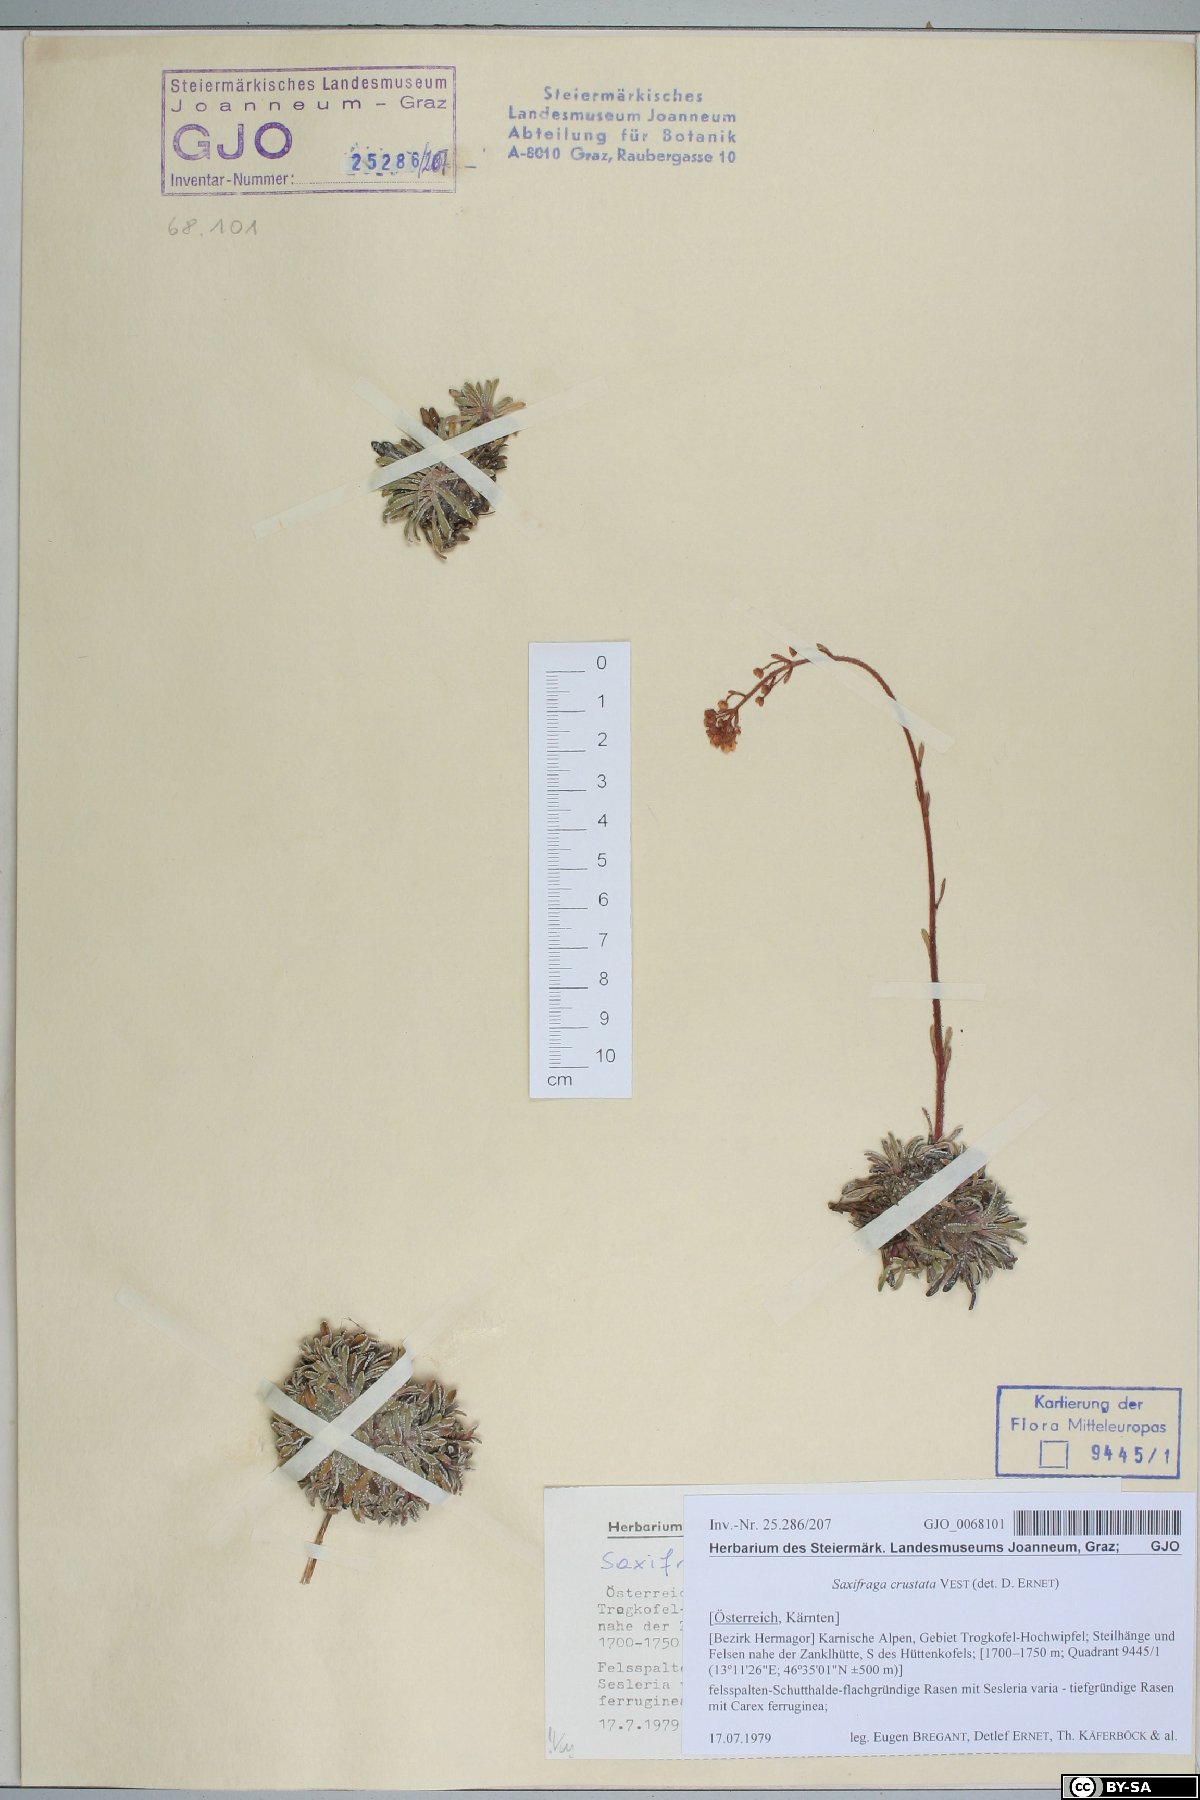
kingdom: Plantae
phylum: Tracheophyta
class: Magnoliopsida
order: Saxifragales
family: Saxifragaceae
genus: Saxifraga
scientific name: Saxifraga crustata
